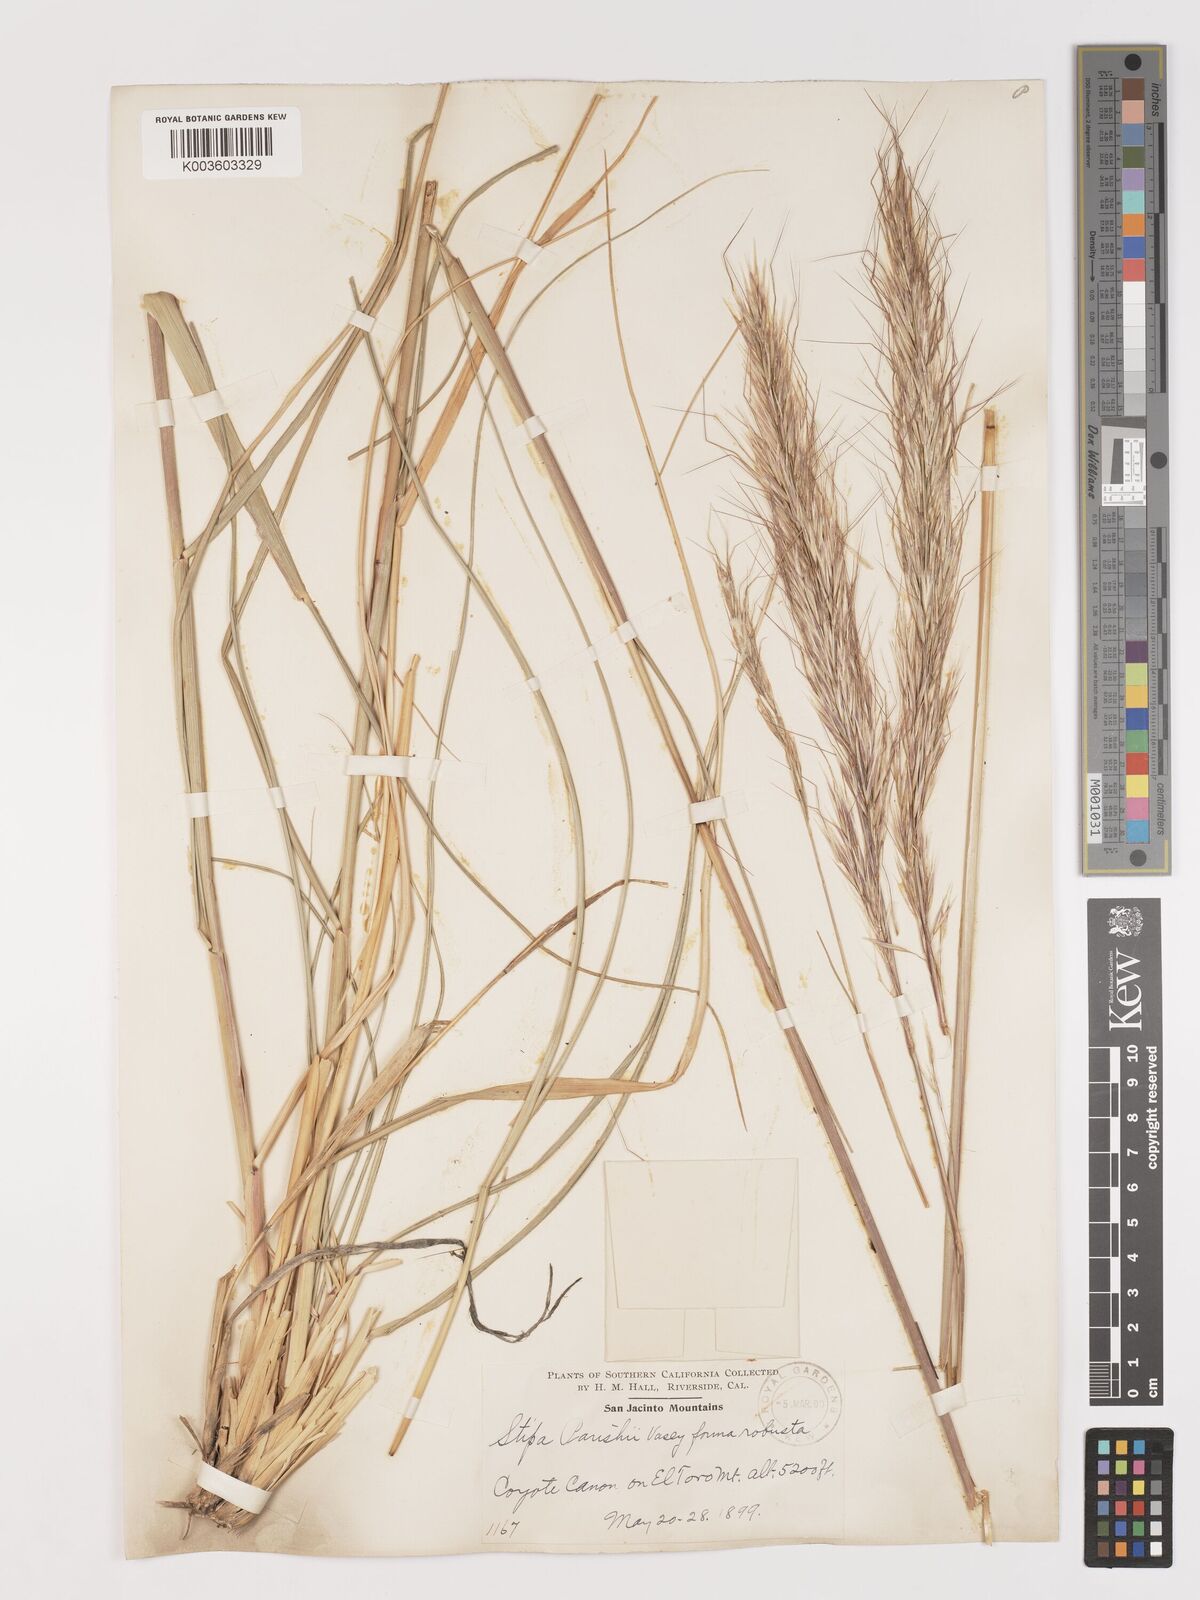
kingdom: Plantae
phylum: Tracheophyta
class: Liliopsida
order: Poales
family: Poaceae
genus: Hesperostipa
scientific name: Hesperostipa comata
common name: Needle-and-thread grass
